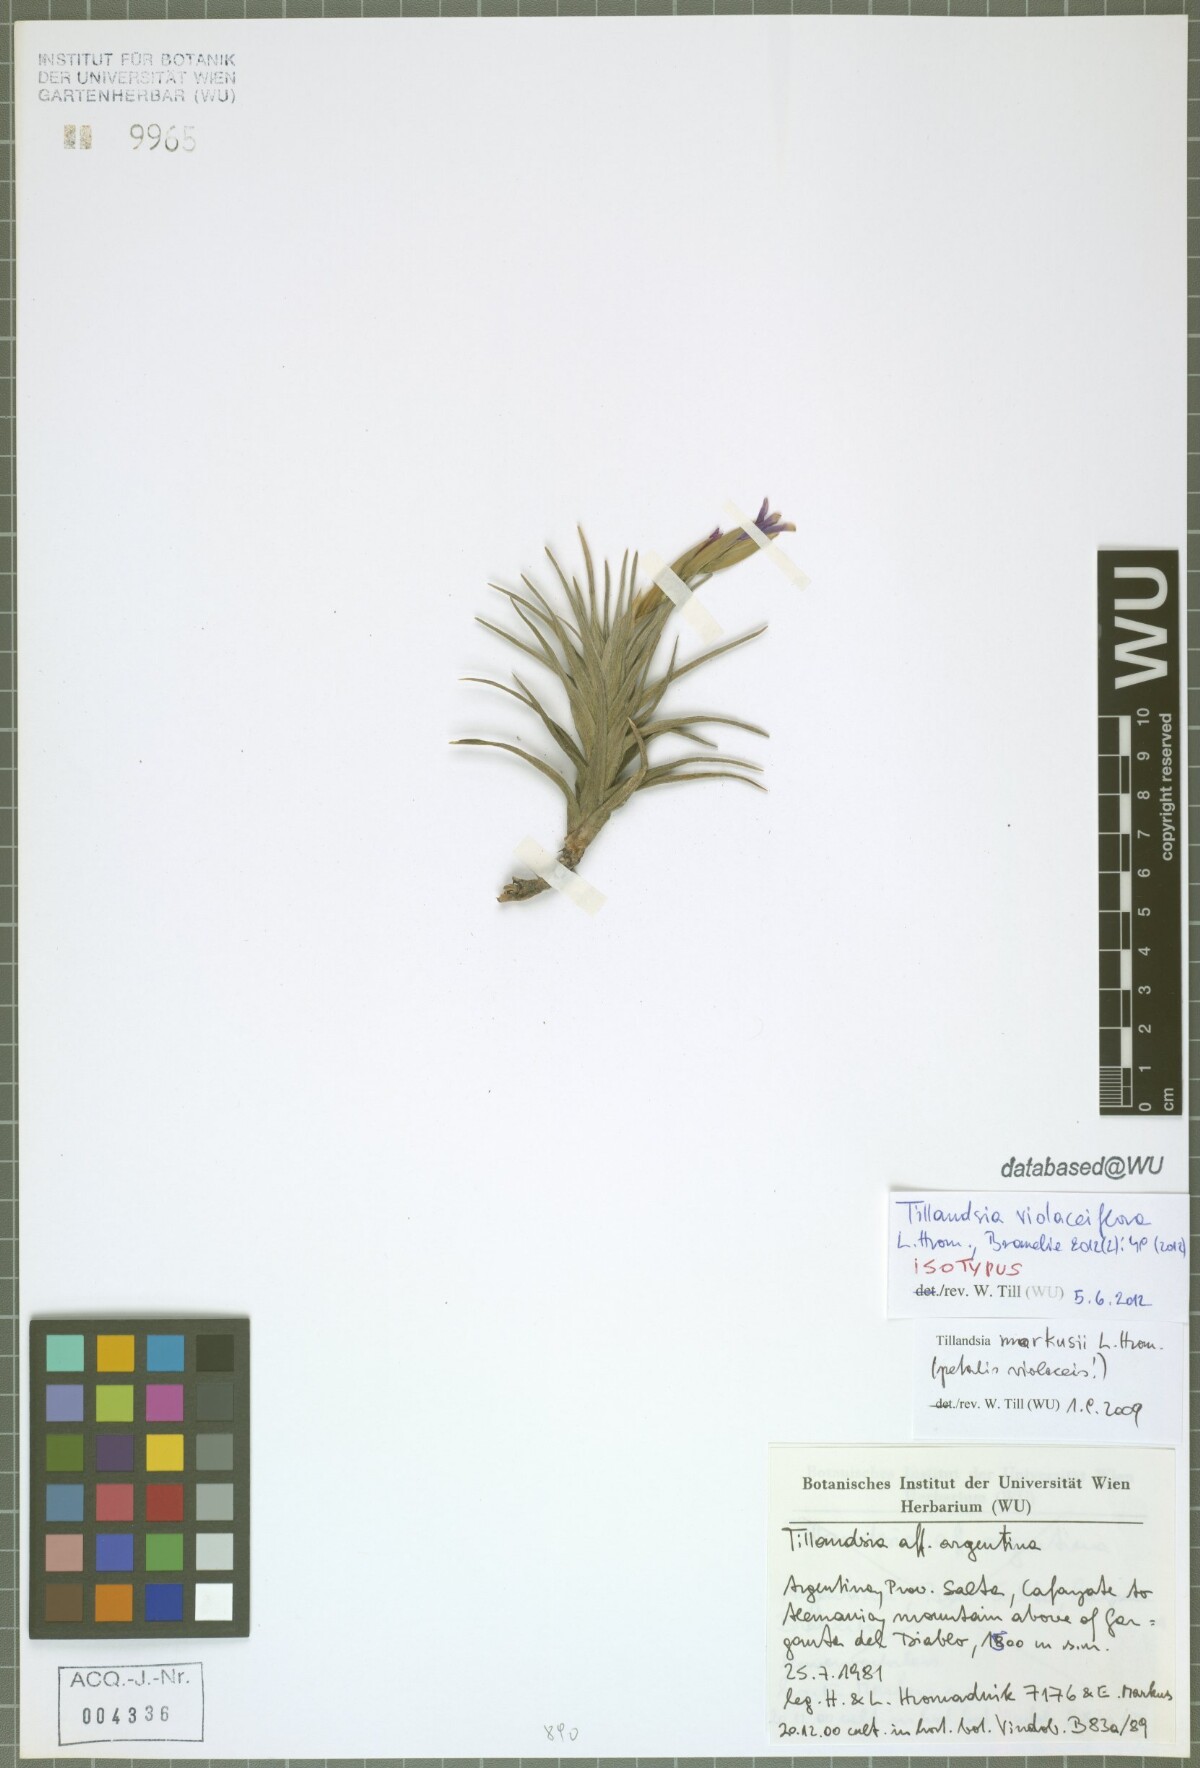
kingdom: Plantae
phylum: Tracheophyta
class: Liliopsida
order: Poales
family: Bromeliaceae
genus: Tillandsia
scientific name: Tillandsia violaceiflora
